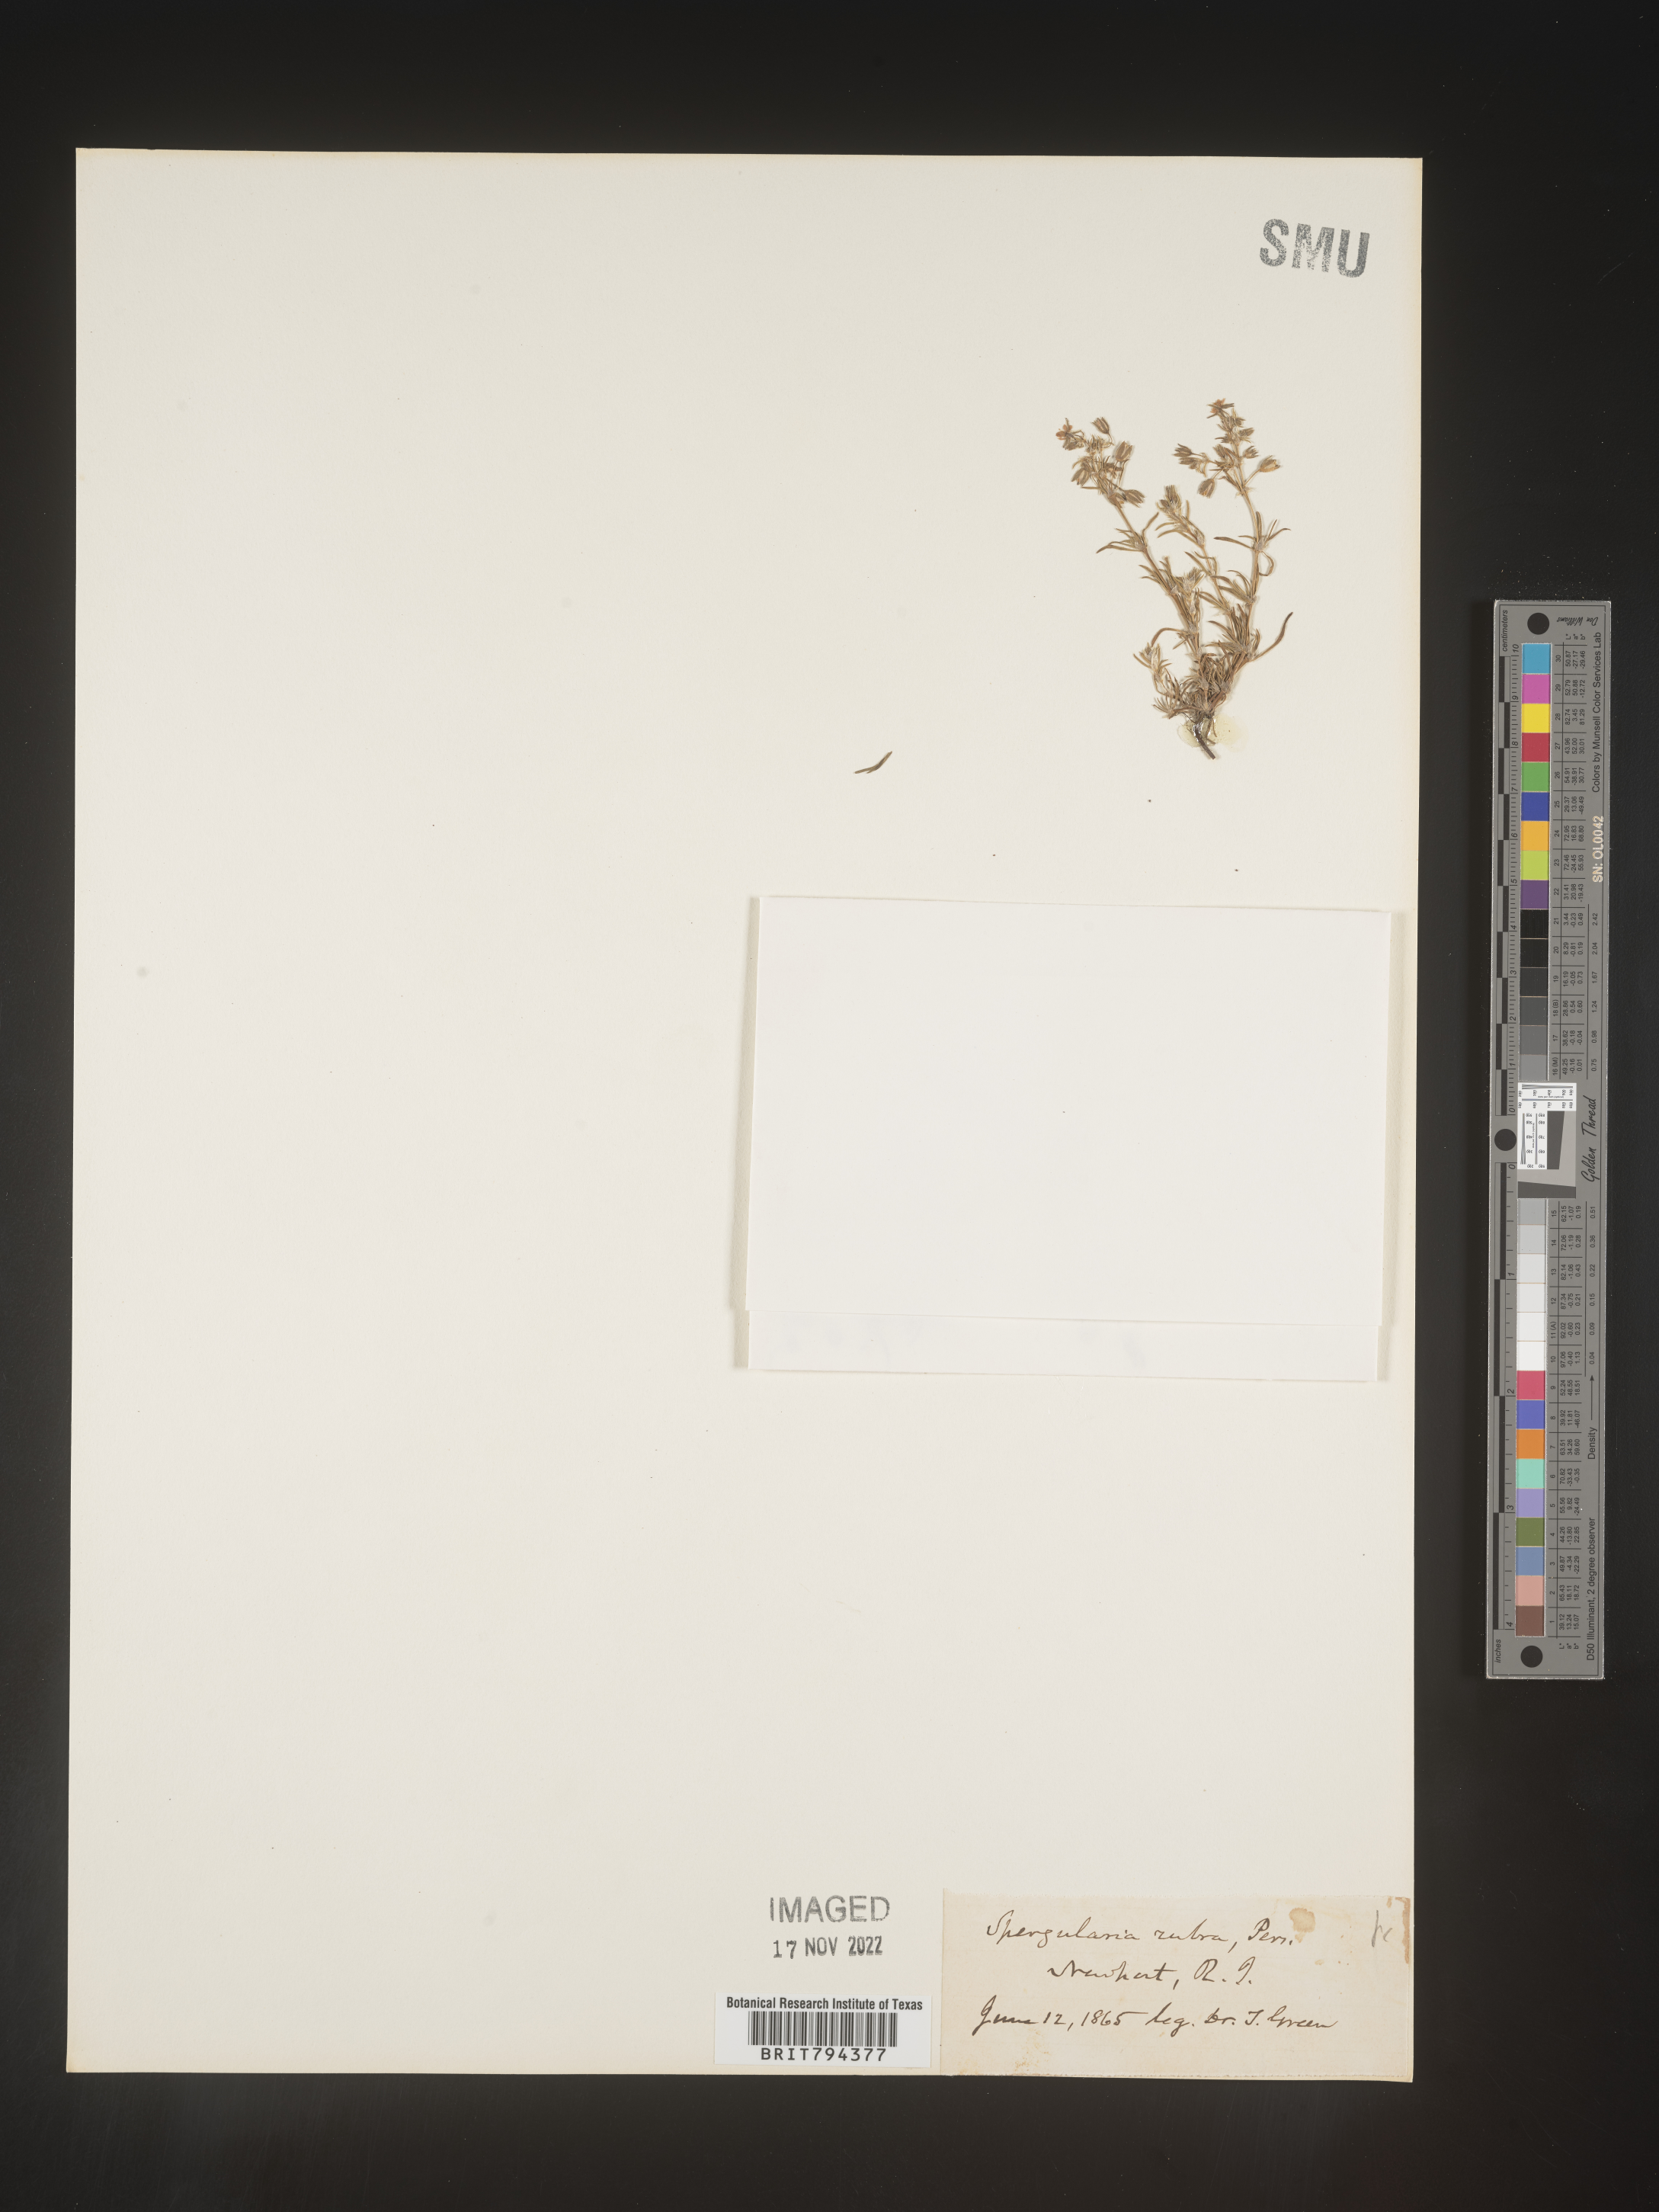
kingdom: Plantae
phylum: Tracheophyta
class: Magnoliopsida
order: Caryophyllales
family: Caryophyllaceae
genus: Spergularia
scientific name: Spergularia rubra
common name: Red sand-spurrey
